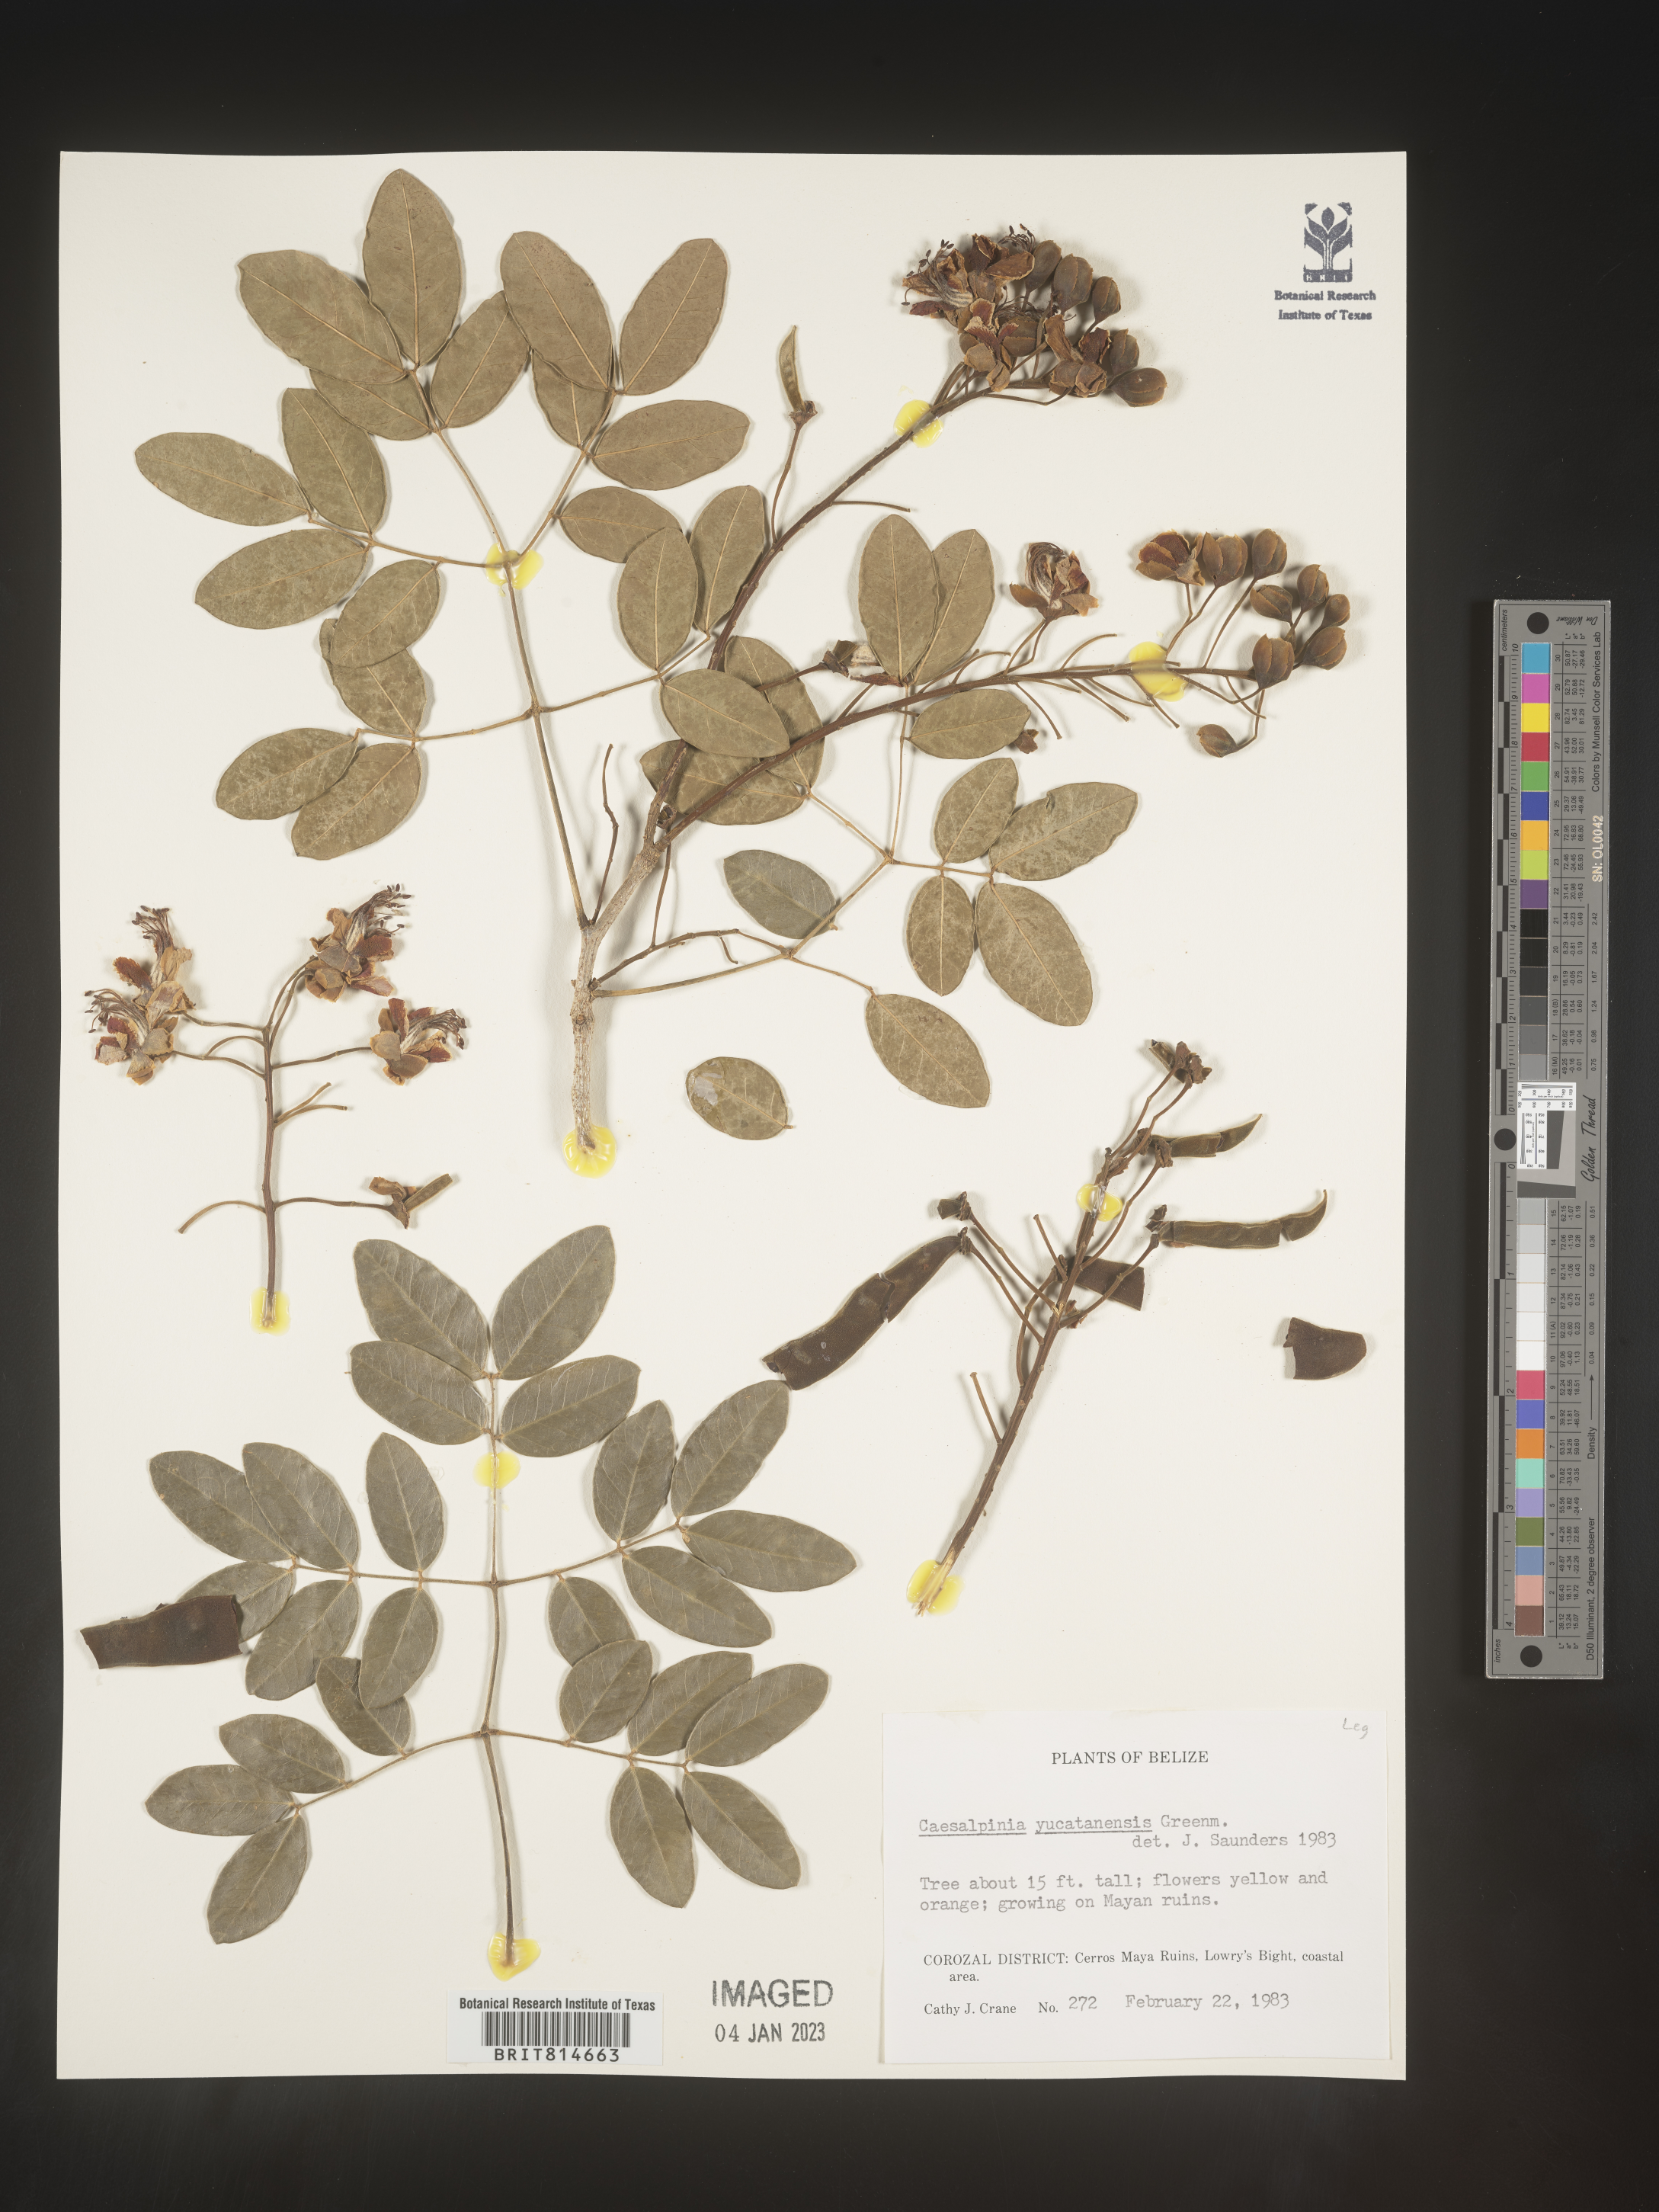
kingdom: Plantae
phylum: Tracheophyta
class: Magnoliopsida
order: Fabales
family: Fabaceae
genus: Caesalpinia
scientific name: Caesalpinia
